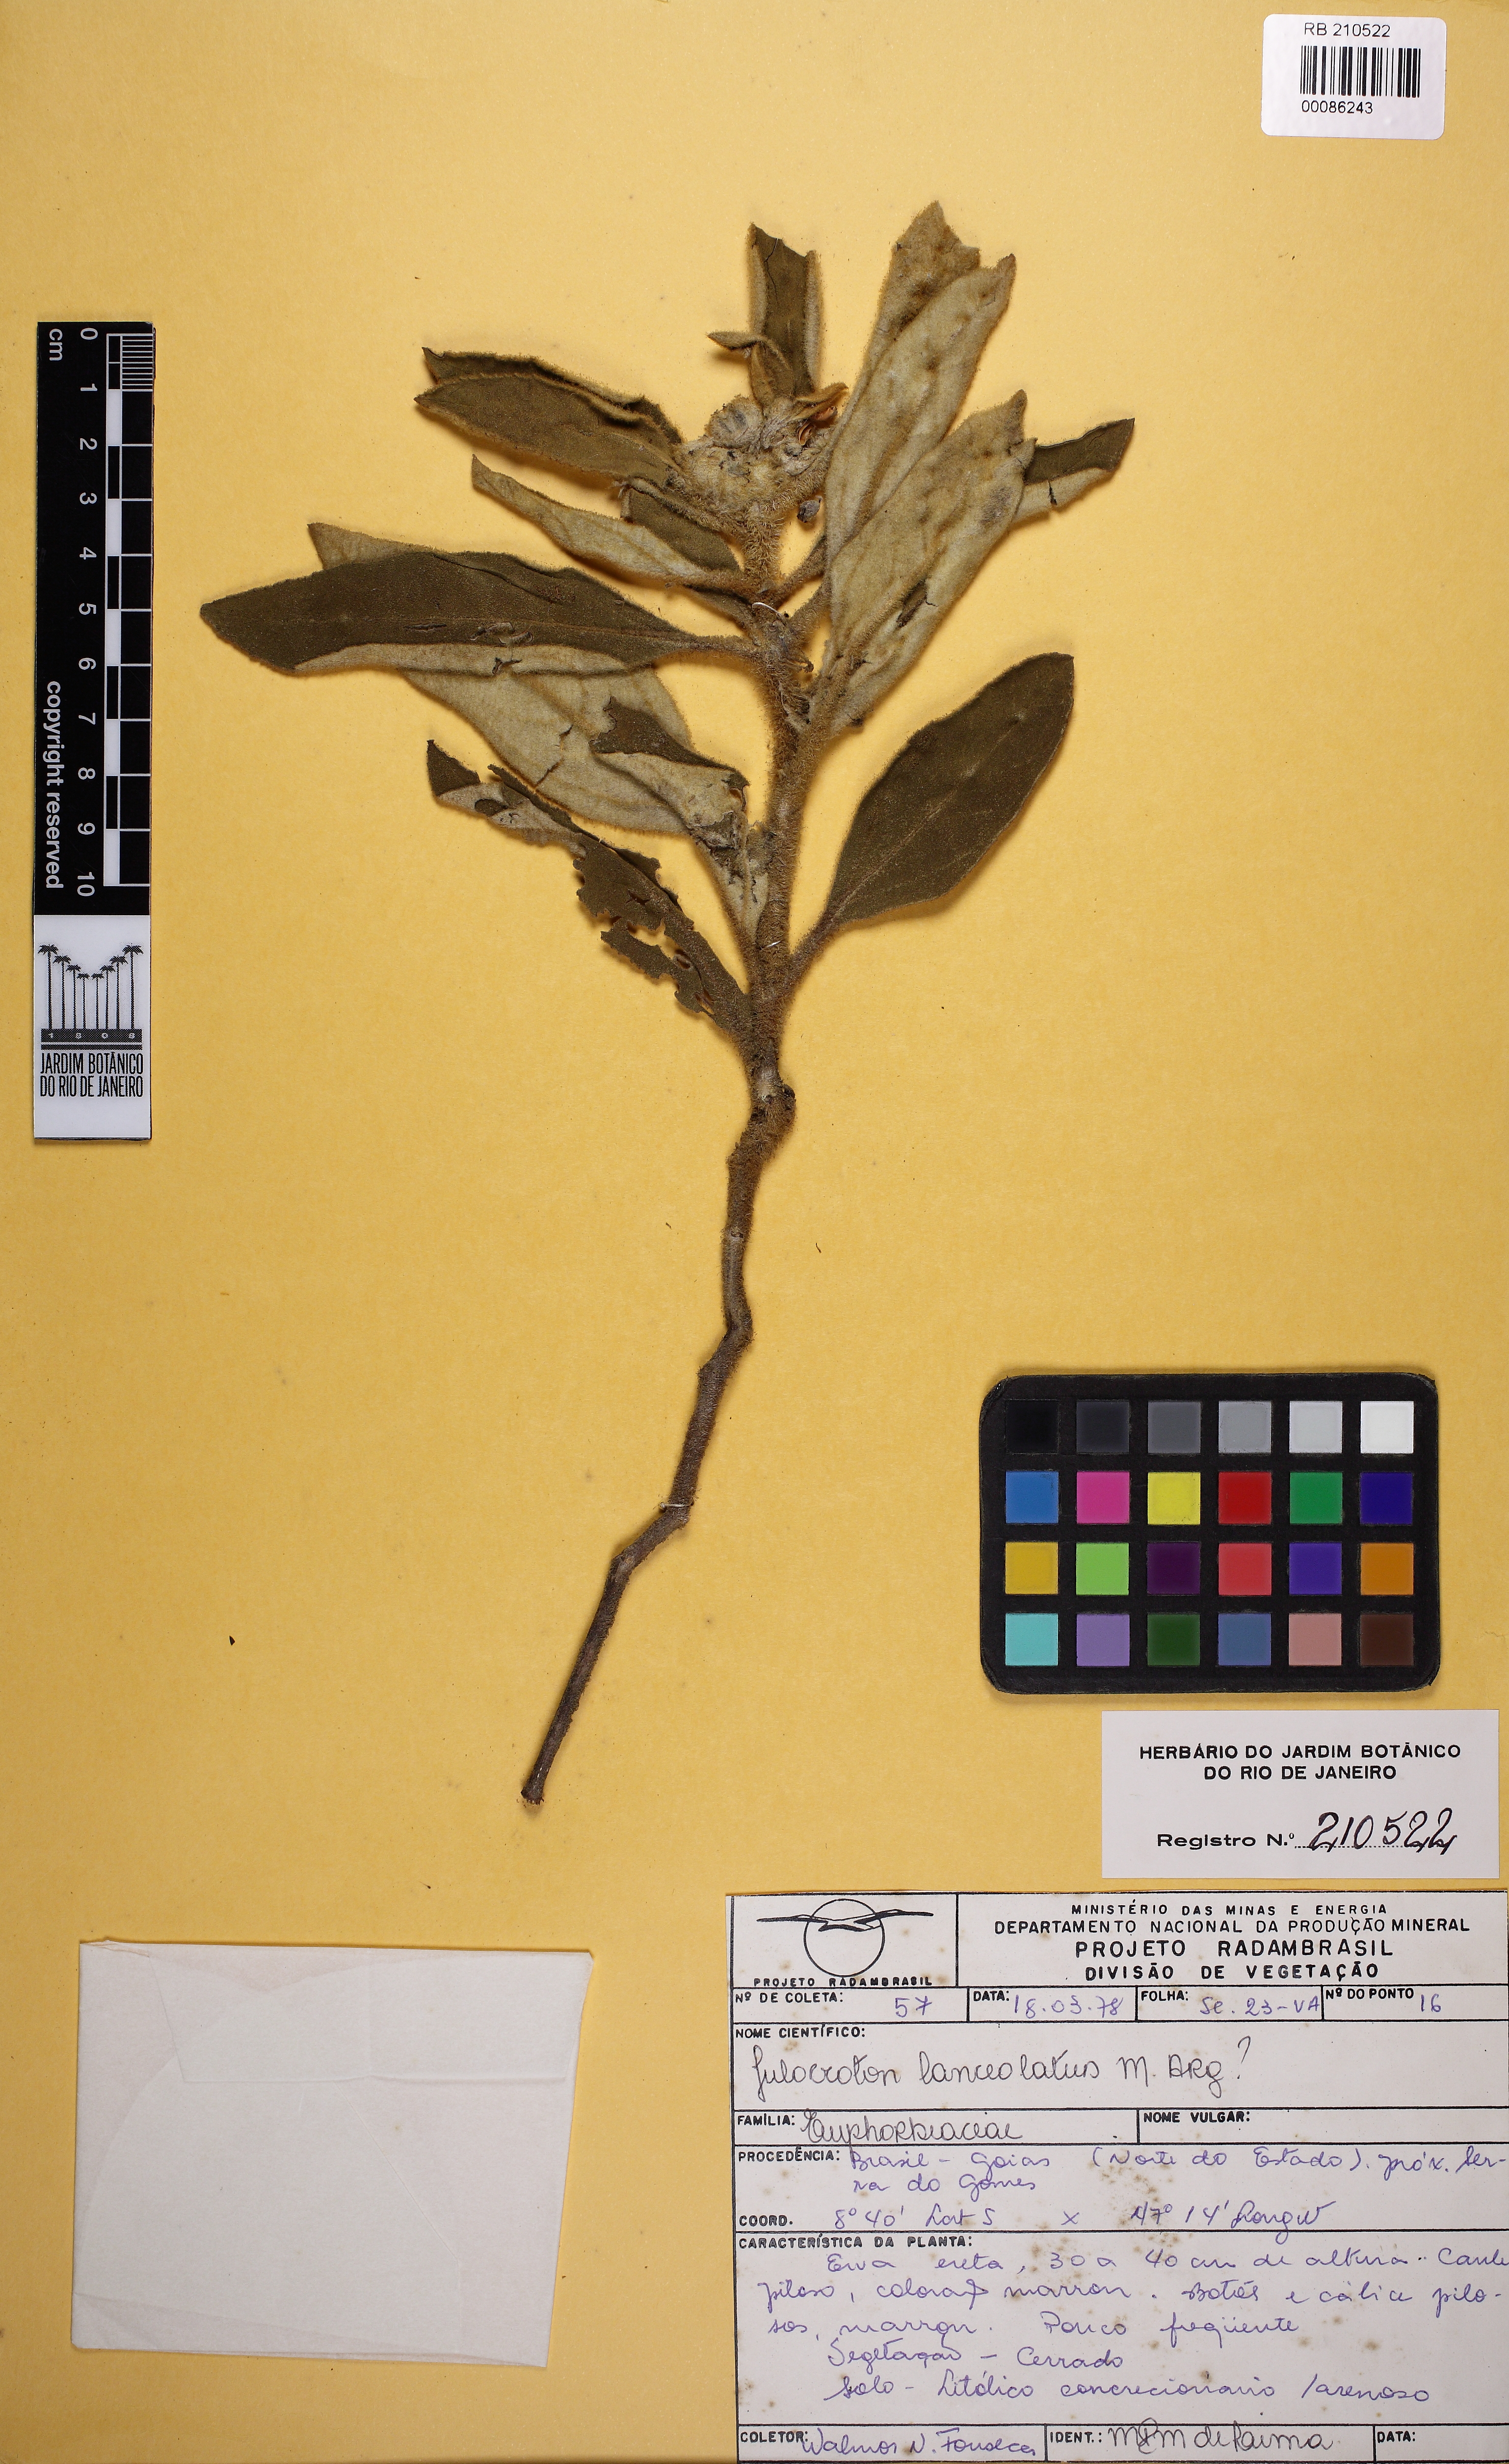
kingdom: Plantae
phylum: Tracheophyta
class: Magnoliopsida
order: Malpighiales
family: Euphorbiaceae
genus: Caperonia
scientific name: Caperonia heteropetala
